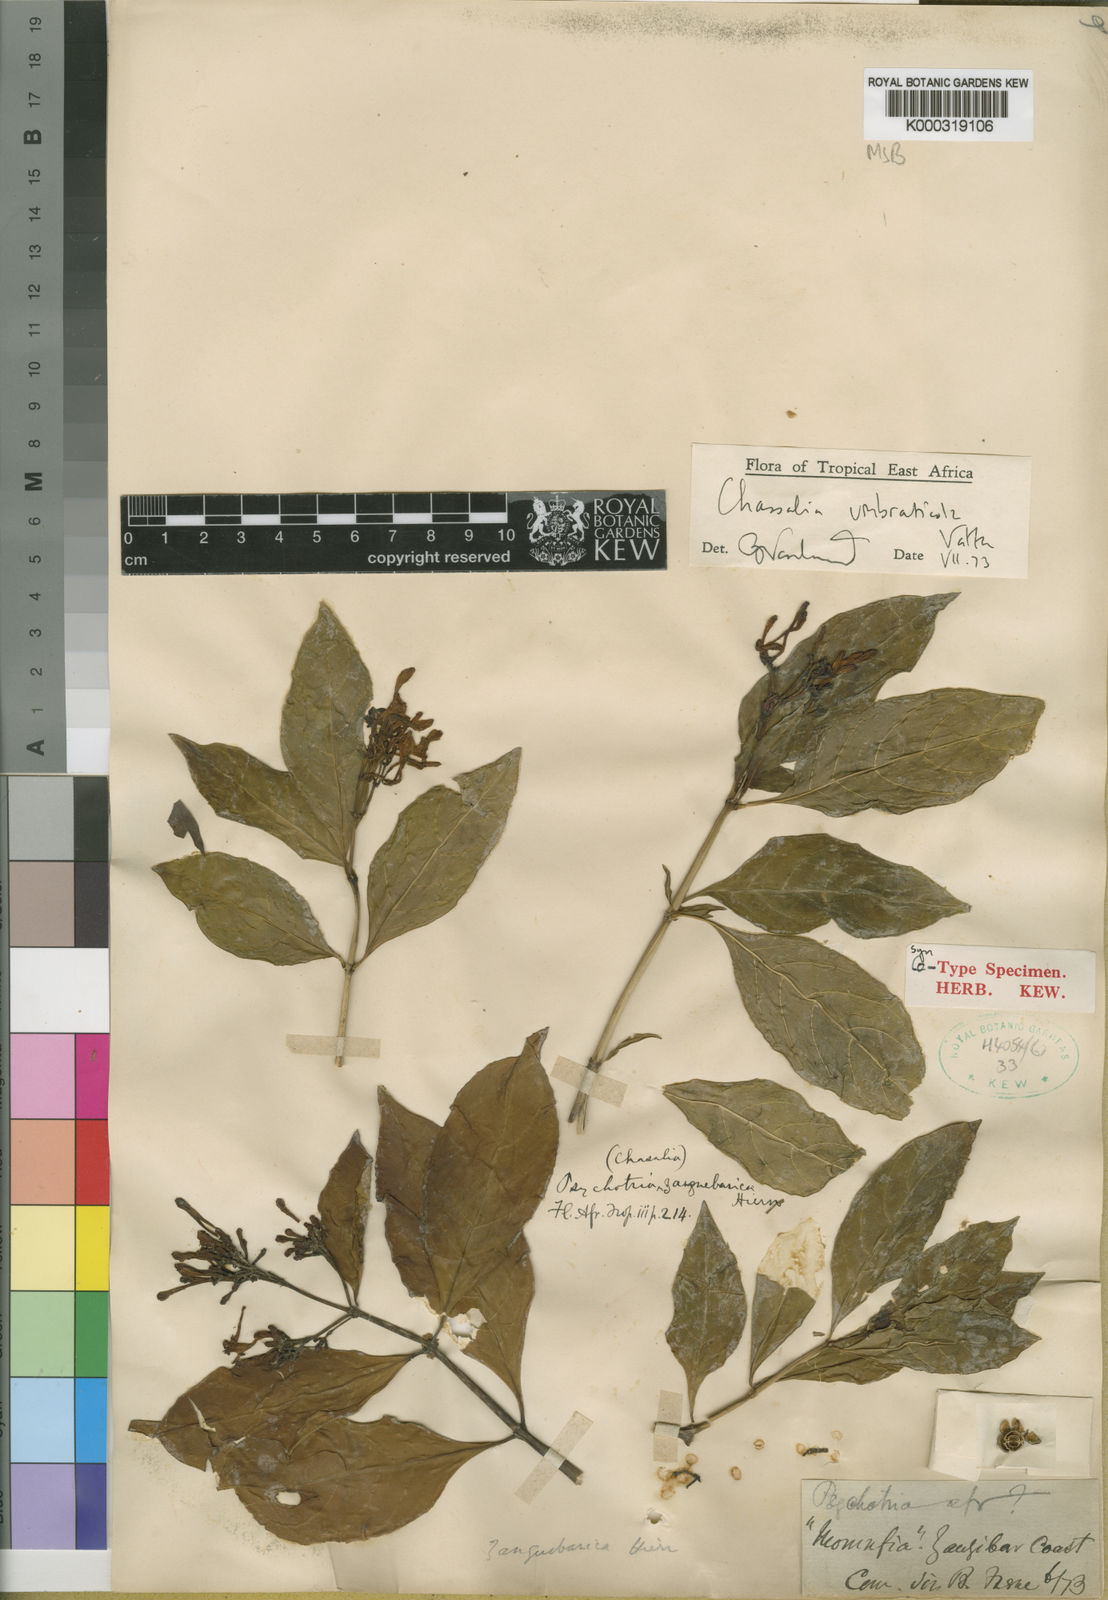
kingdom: Plantae
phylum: Tracheophyta
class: Magnoliopsida
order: Gentianales
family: Rubiaceae
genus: Chassalia
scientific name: Chassalia umbraticola
